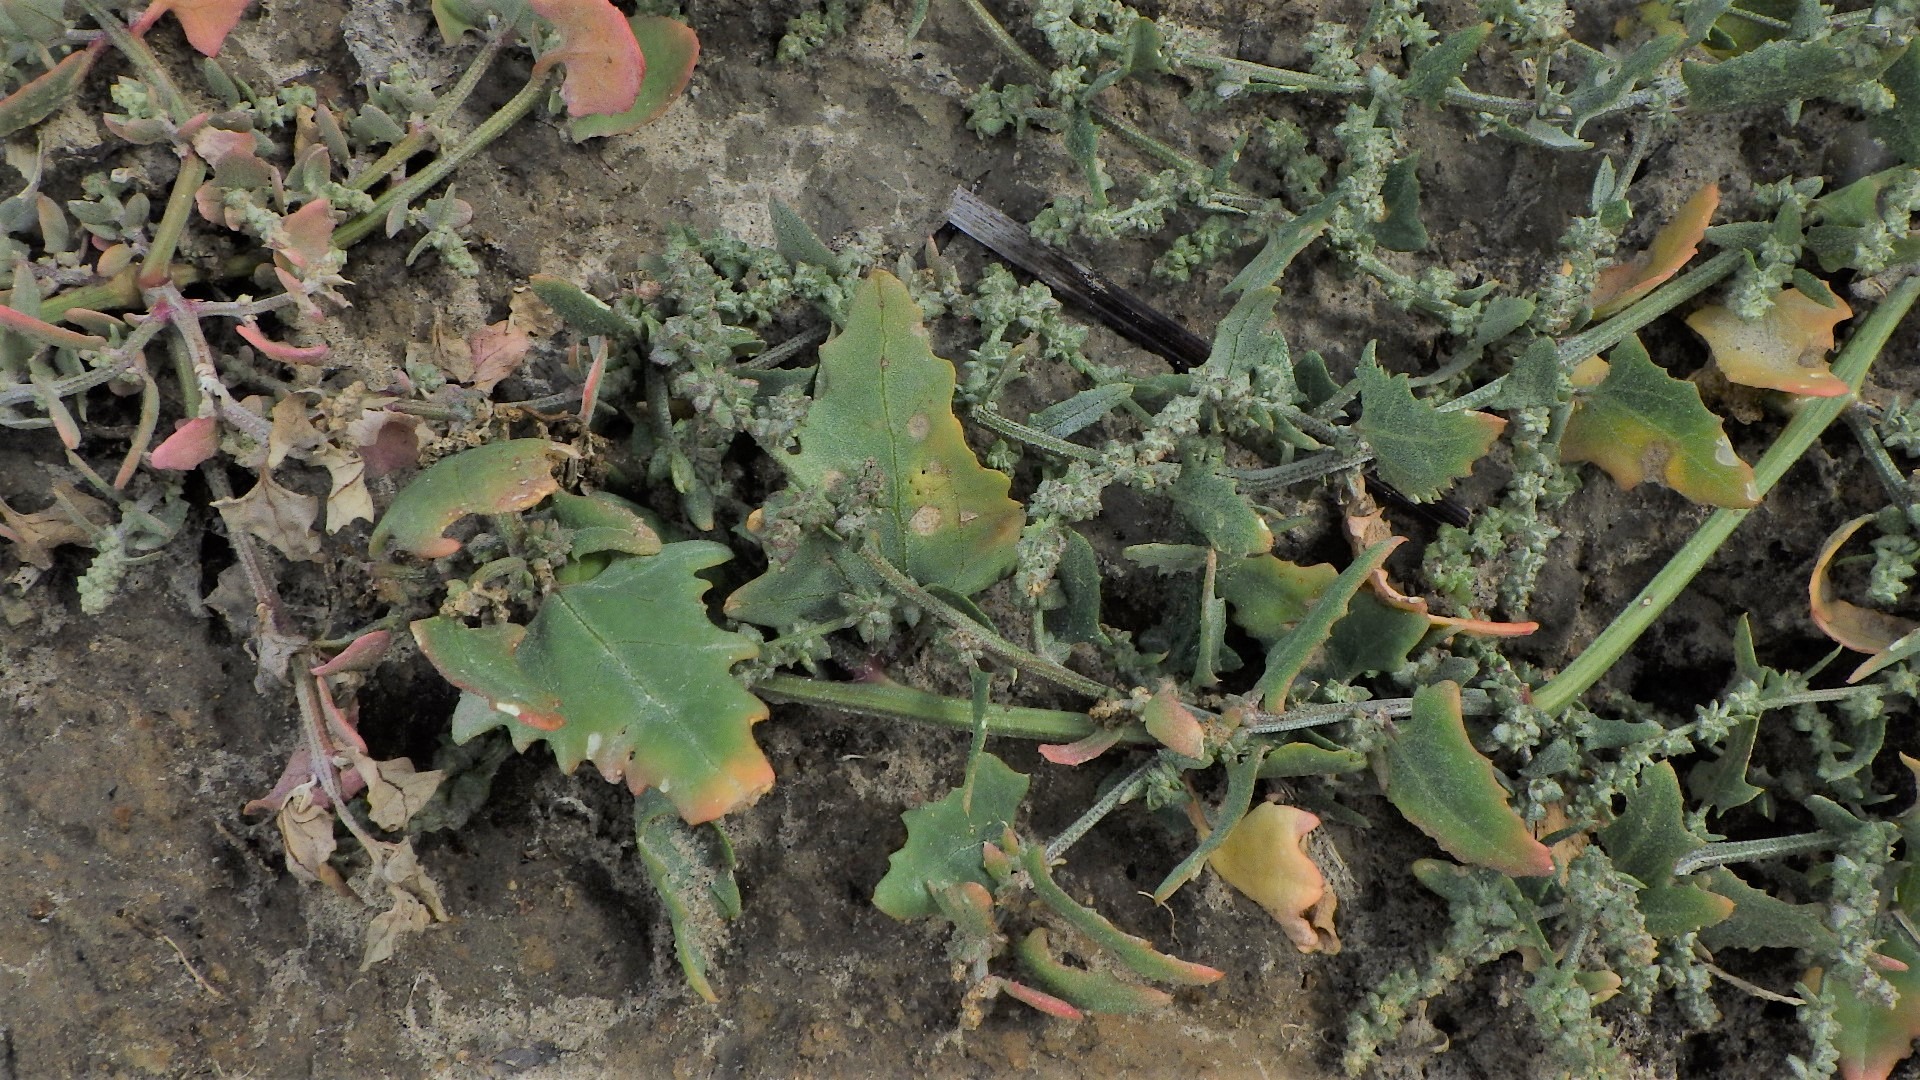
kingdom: Plantae
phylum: Tracheophyta
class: Magnoliopsida
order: Caryophyllales
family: Amaranthaceae
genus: Atriplex
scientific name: Atriplex prostrata
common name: Spyd-mælde
